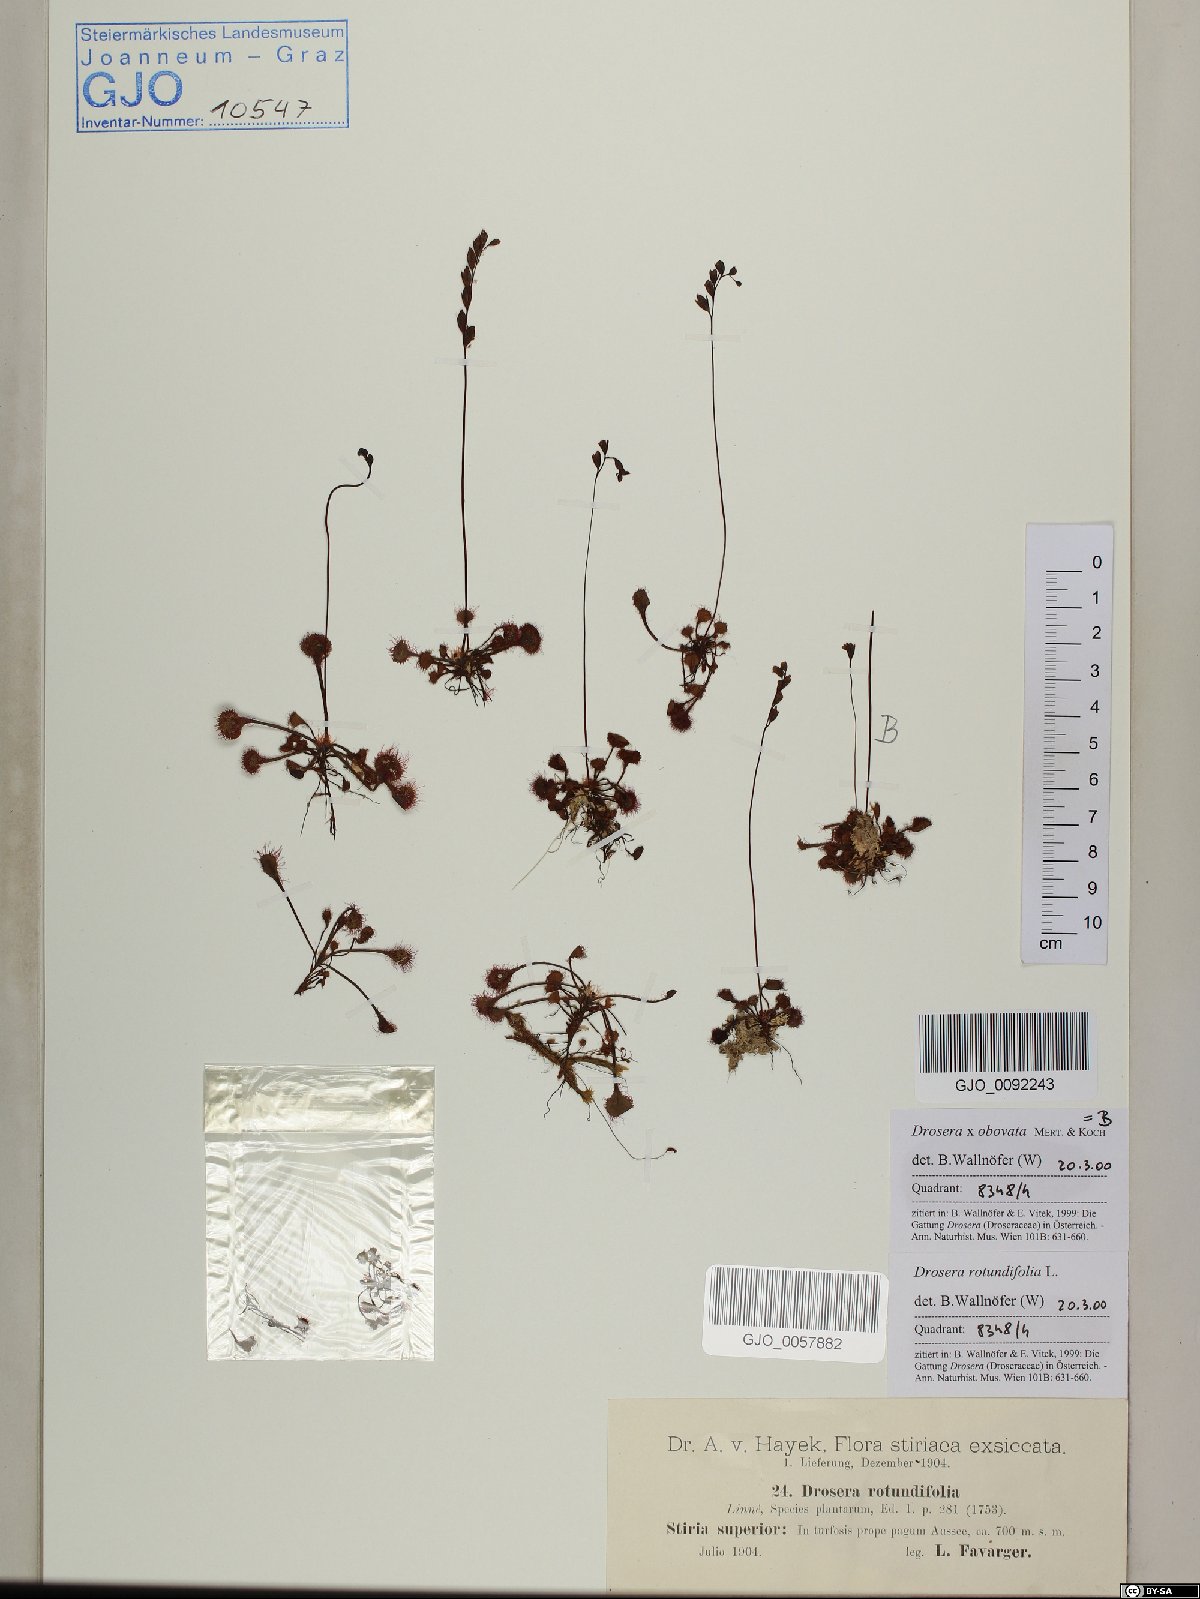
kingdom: Plantae
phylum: Tracheophyta
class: Magnoliopsida
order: Caryophyllales
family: Droseraceae
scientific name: Droseraceae
